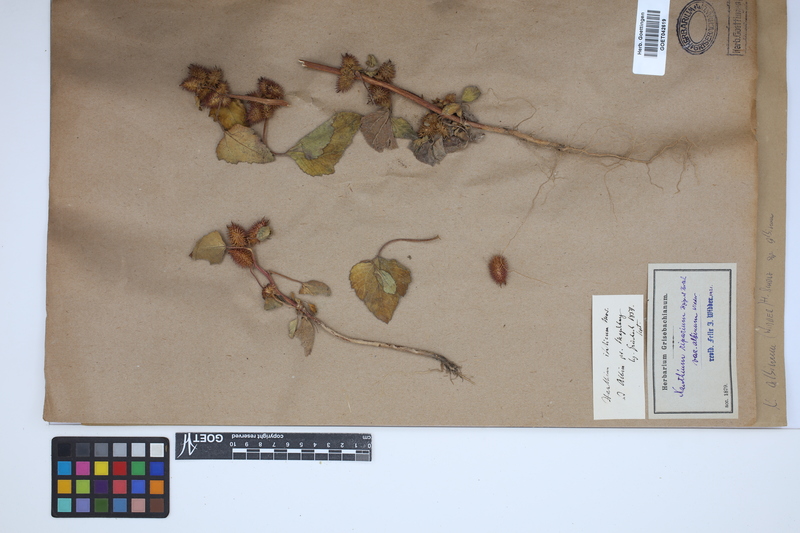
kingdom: Plantae
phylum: Tracheophyta
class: Magnoliopsida
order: Asterales
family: Asteraceae
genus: Xanthium
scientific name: Xanthium orientale
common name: Californian burr
